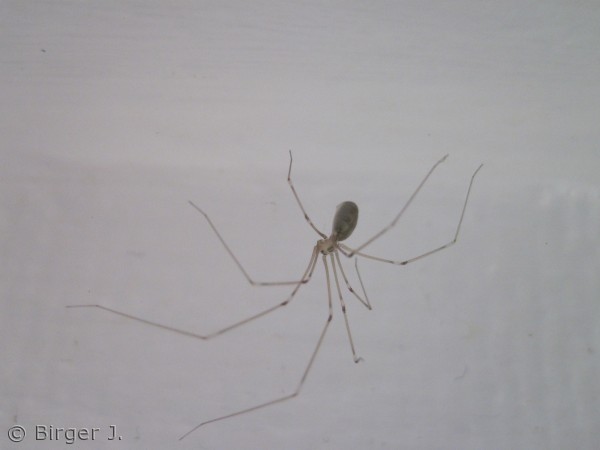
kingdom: Animalia
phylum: Arthropoda
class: Arachnida
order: Araneae
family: Pholcidae
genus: Pholcus
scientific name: Pholcus phalangioides
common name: Mejeredderkop
